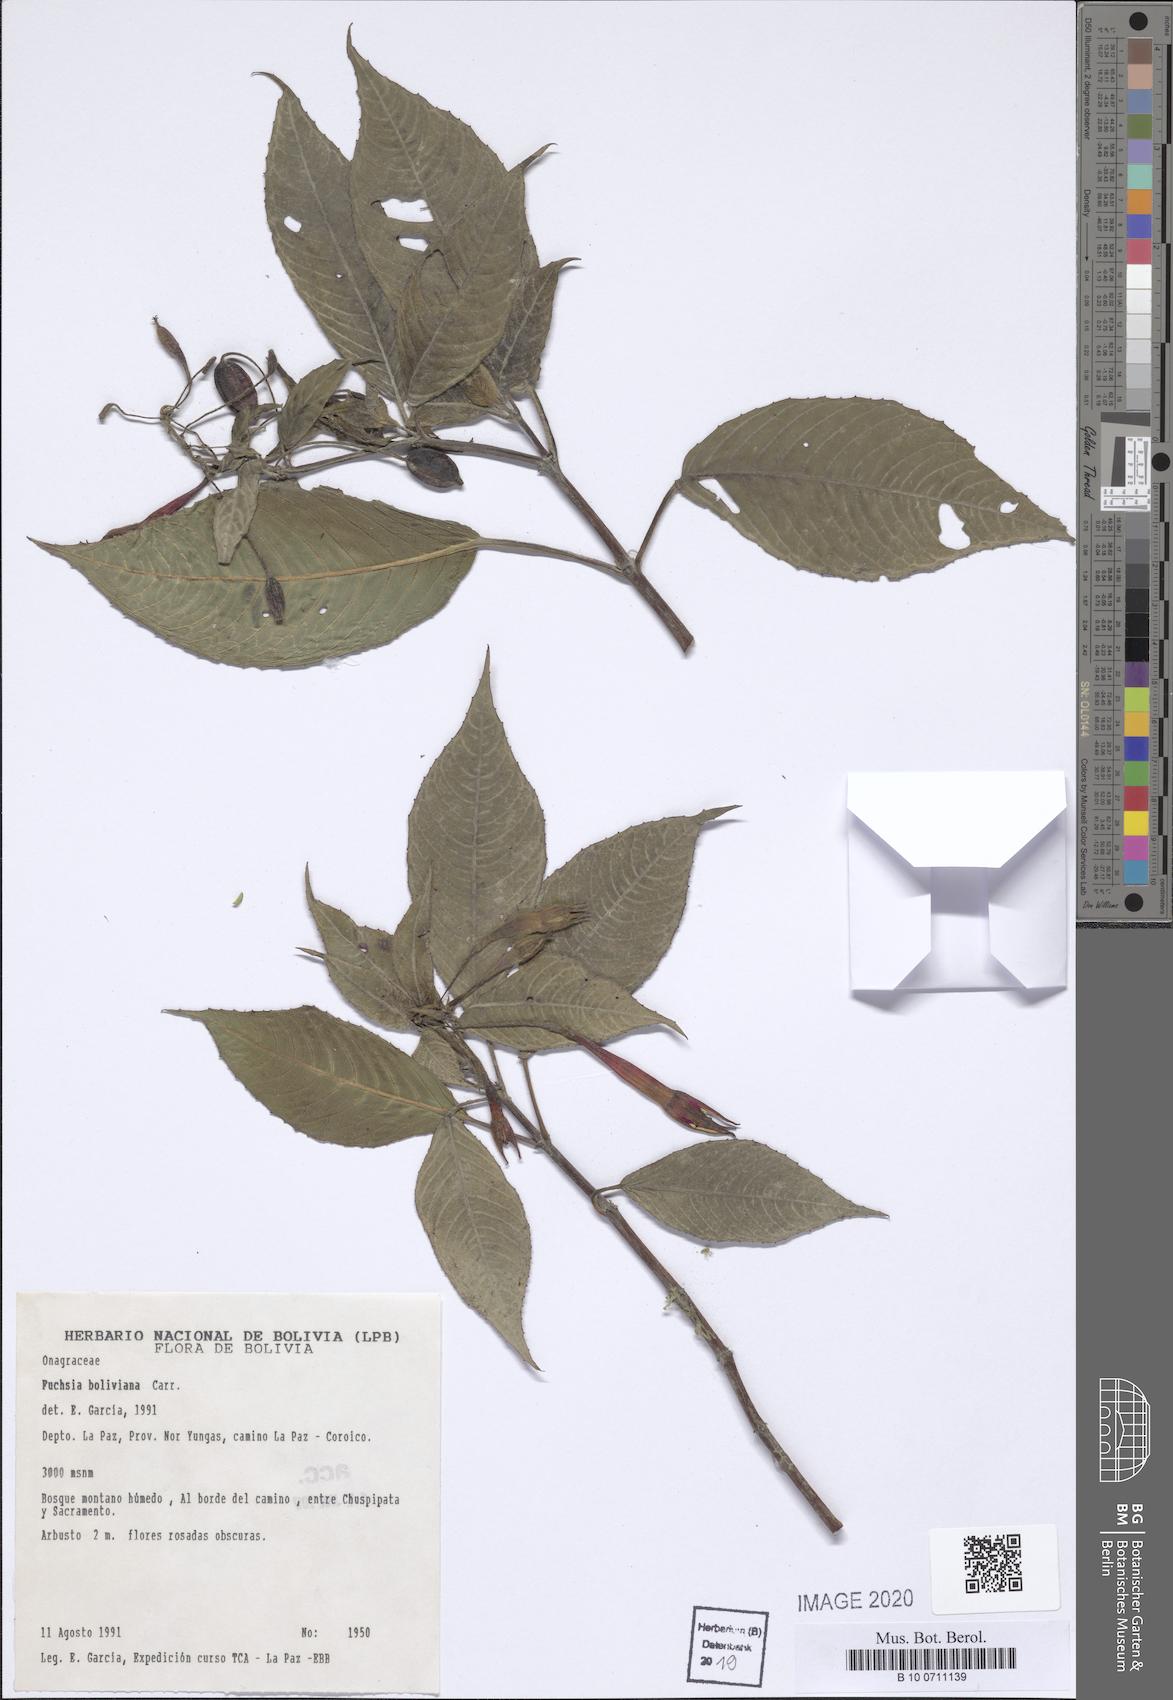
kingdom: Plantae
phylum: Tracheophyta
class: Magnoliopsida
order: Myrtales
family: Onagraceae
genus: Fuchsia
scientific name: Fuchsia boliviana
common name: Bolivian fuchsia
